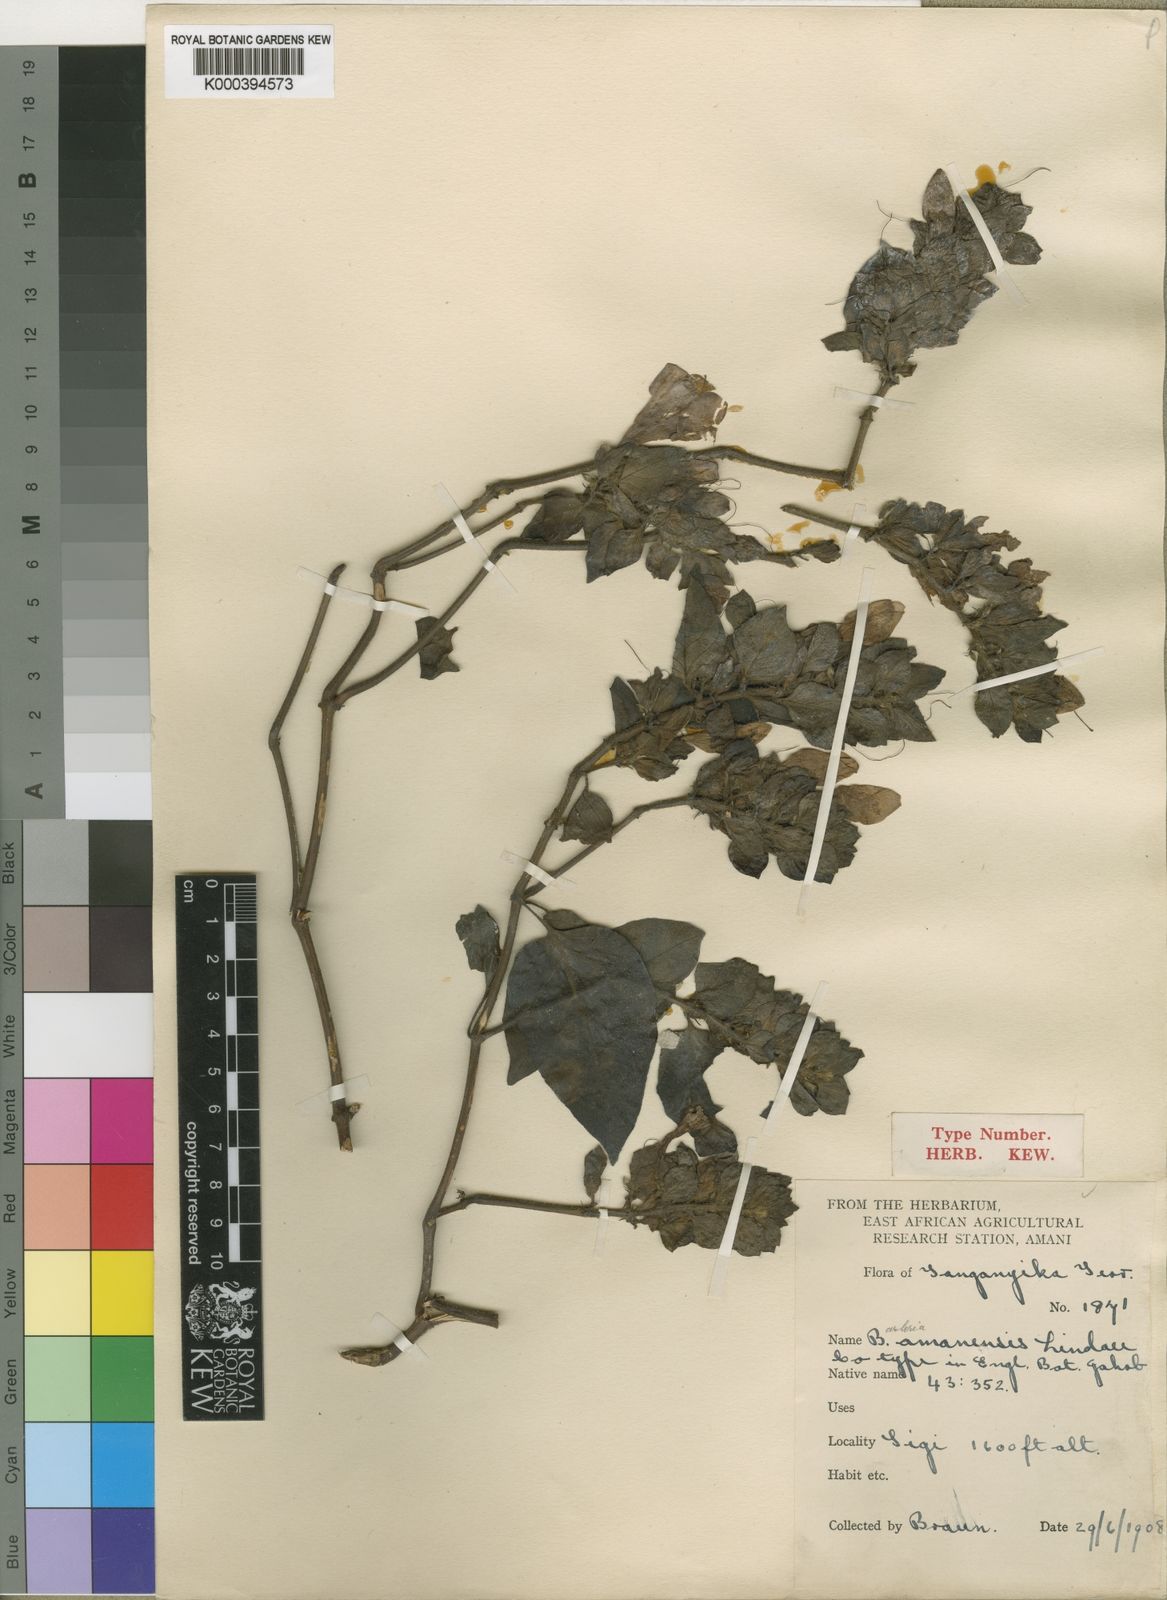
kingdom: Plantae
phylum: Tracheophyta
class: Magnoliopsida
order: Lamiales
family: Acanthaceae
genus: Barleria
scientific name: Barleria amanensis
